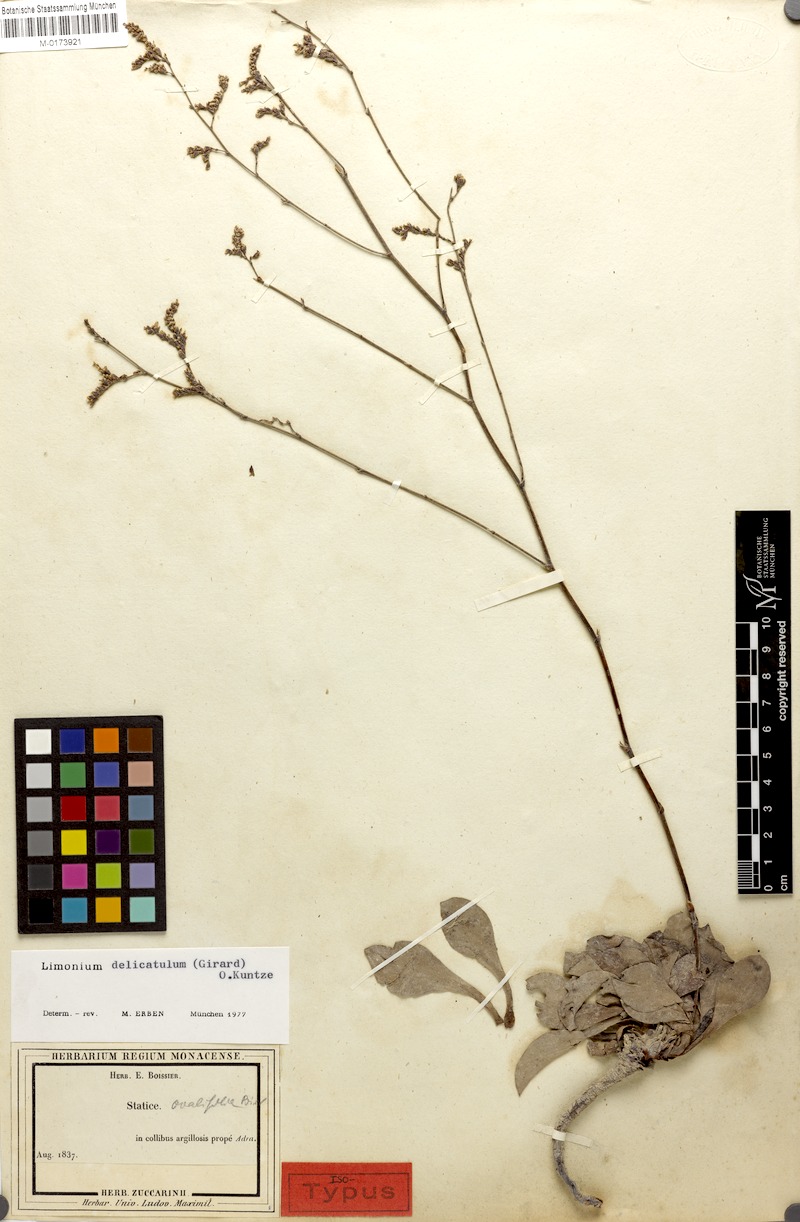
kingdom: Plantae
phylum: Tracheophyta
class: Magnoliopsida
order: Caryophyllales
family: Plumbaginaceae
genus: Limonium
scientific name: Limonium delicatulum
